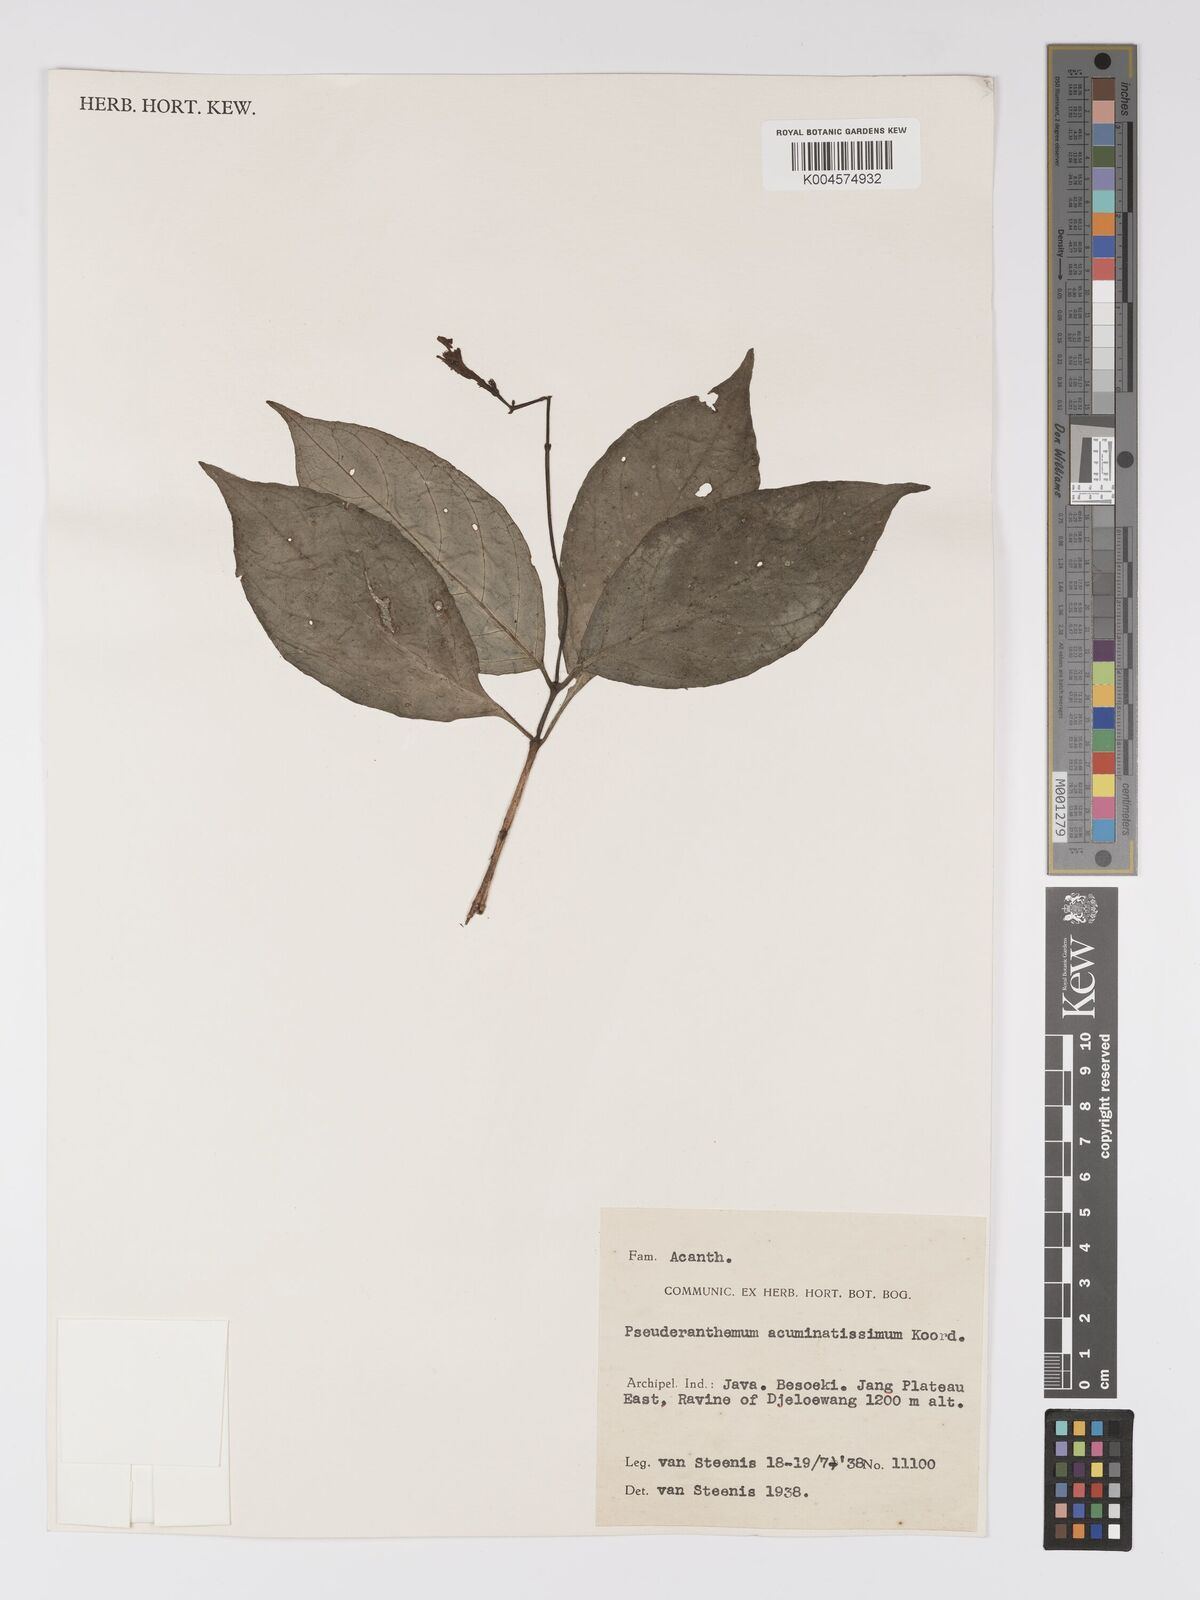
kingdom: Plantae
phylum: Tracheophyta
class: Magnoliopsida
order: Lamiales
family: Acanthaceae
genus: Pseuderanthemum
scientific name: Pseuderanthemum acuminatissimum
